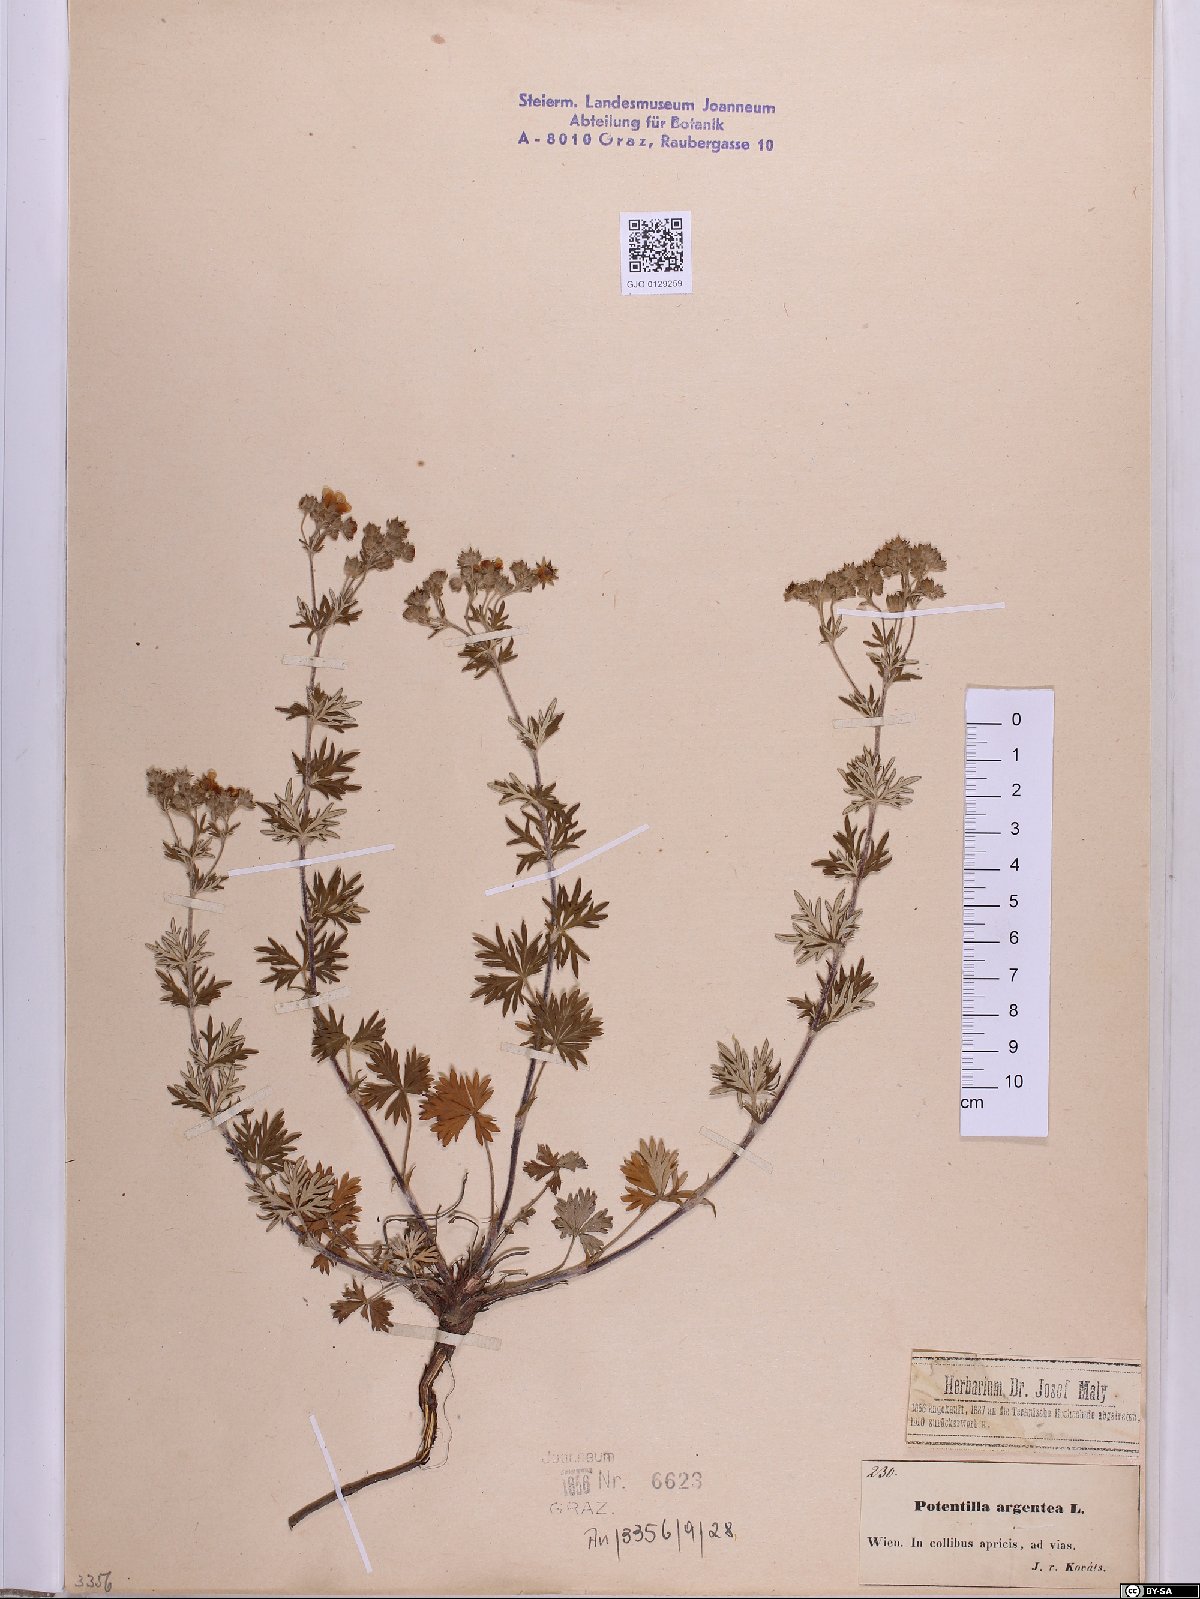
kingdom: Plantae
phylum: Tracheophyta
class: Magnoliopsida
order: Rosales
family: Rosaceae
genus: Potentilla
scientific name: Potentilla argentea
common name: Hoary cinquefoil
